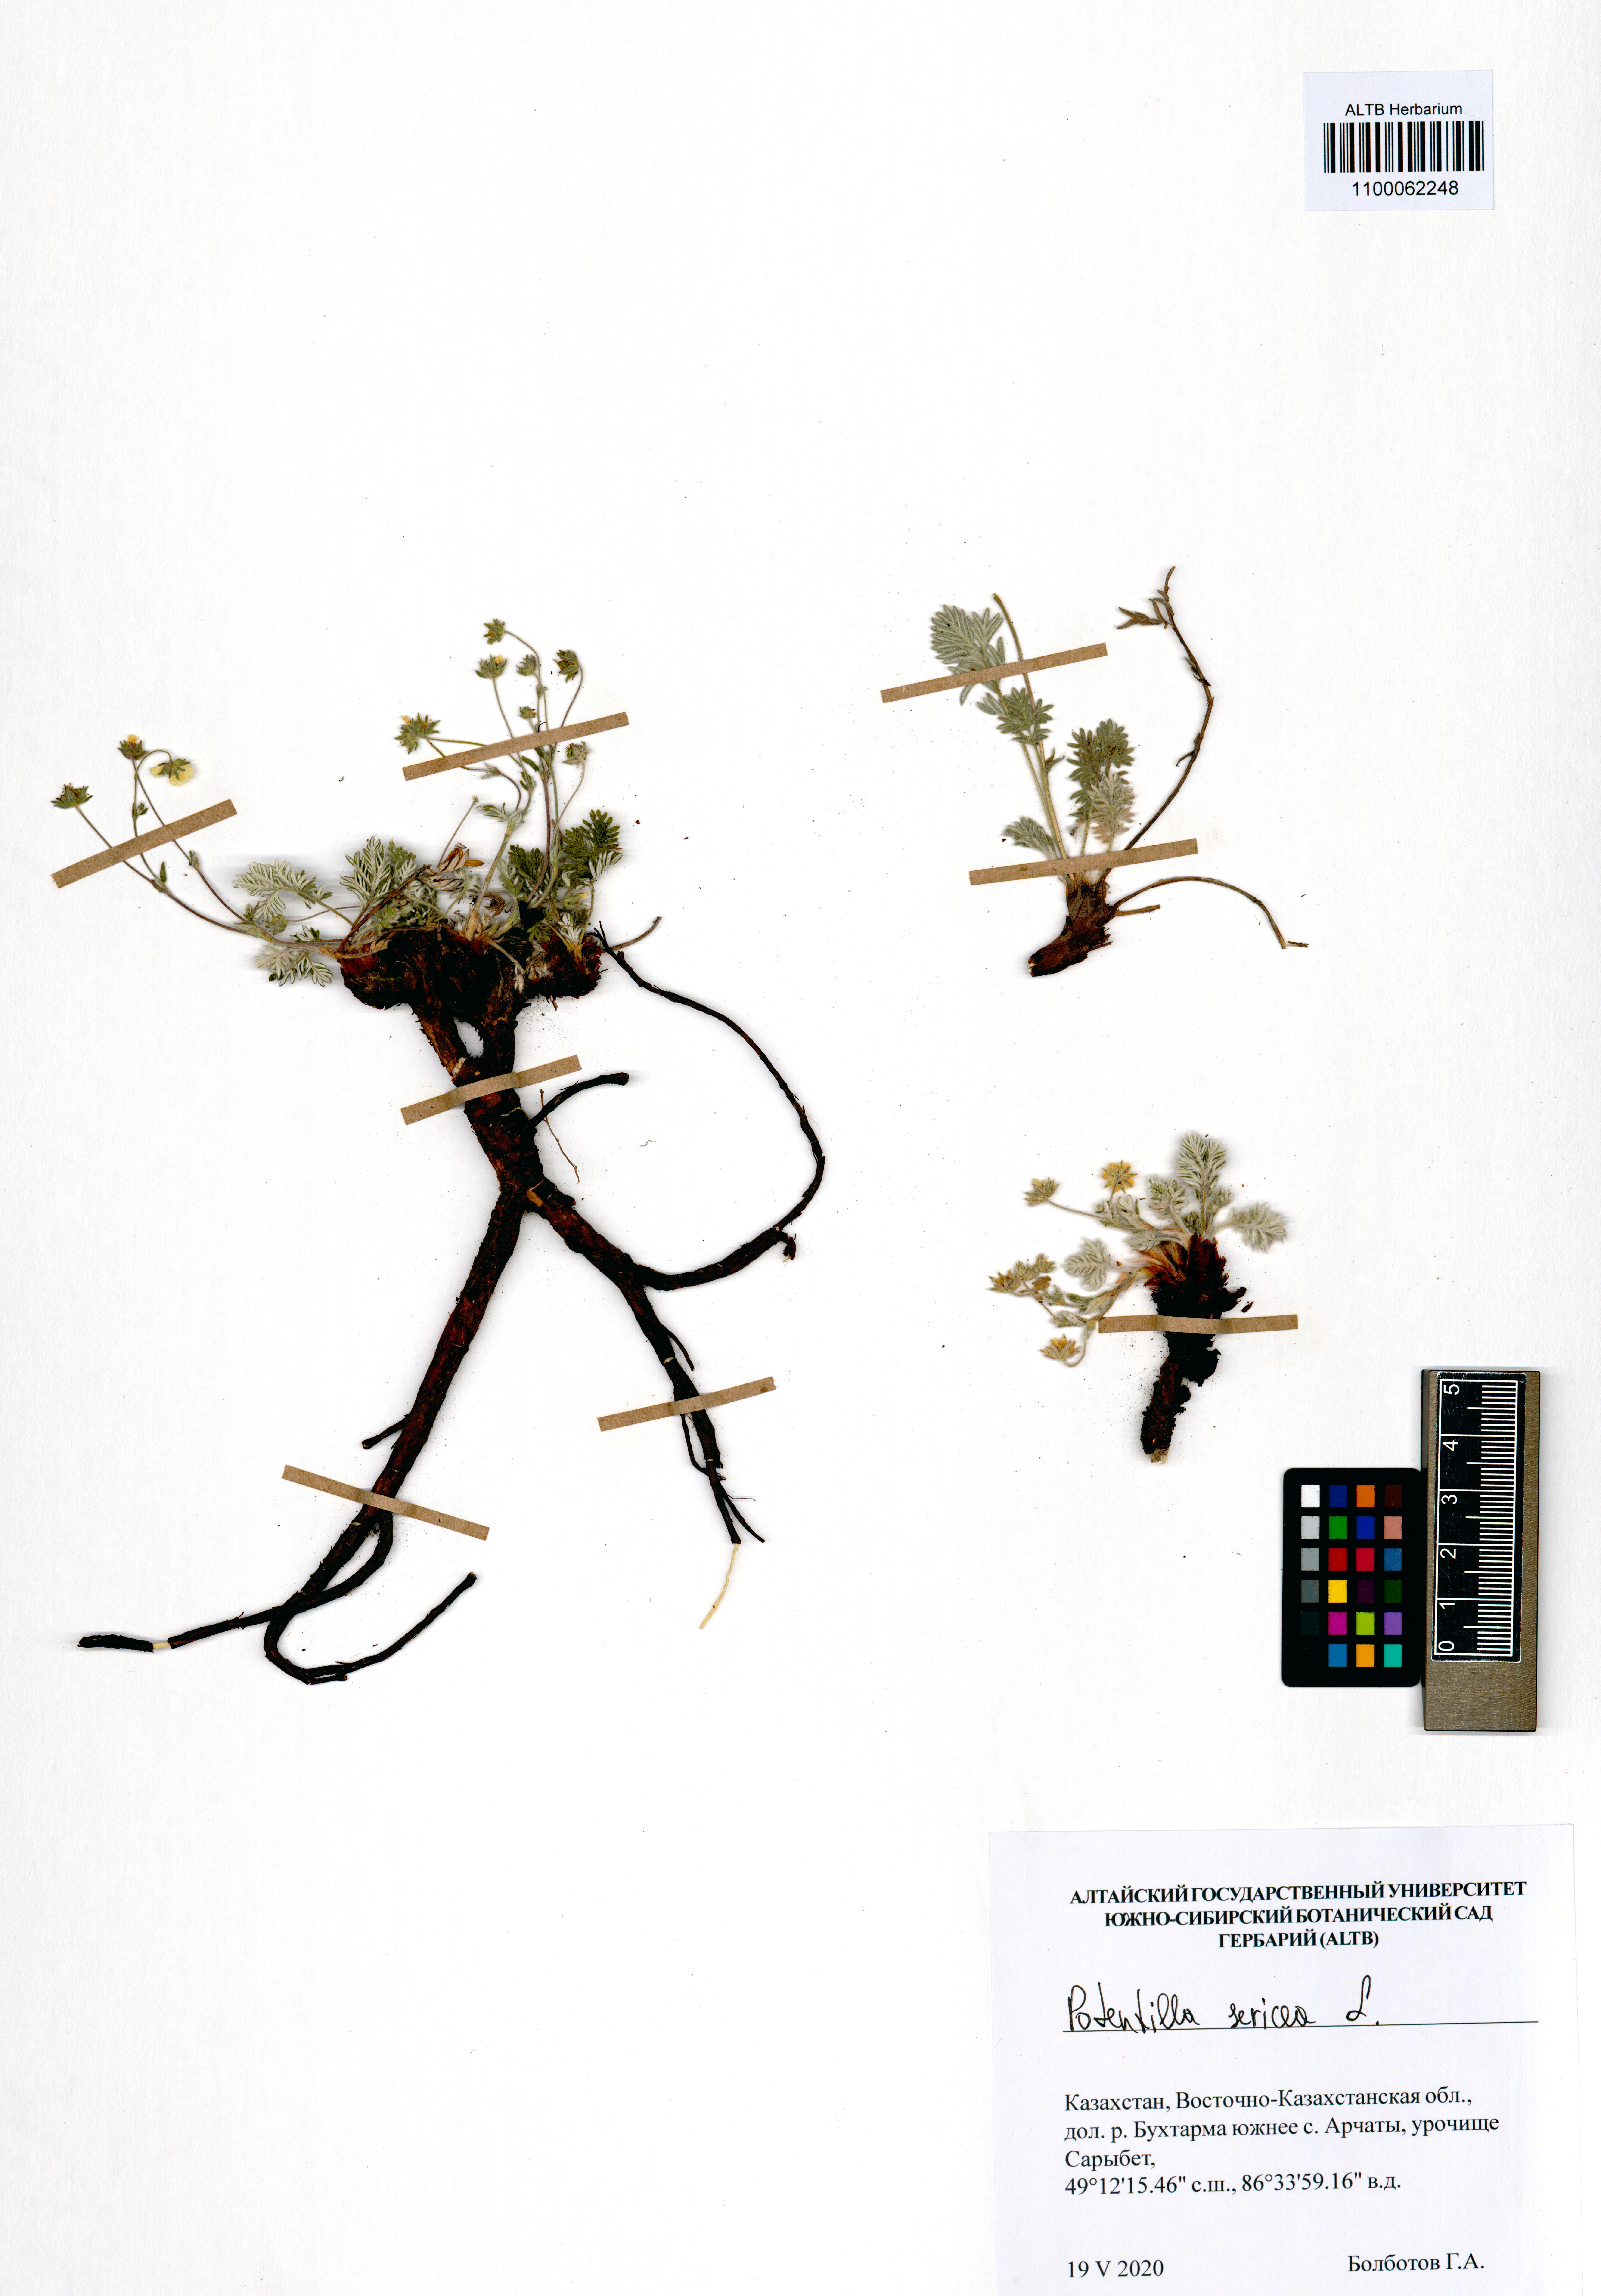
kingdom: Plantae
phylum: Tracheophyta
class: Magnoliopsida
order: Rosales
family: Rosaceae
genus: Potentilla
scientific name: Potentilla sericea
